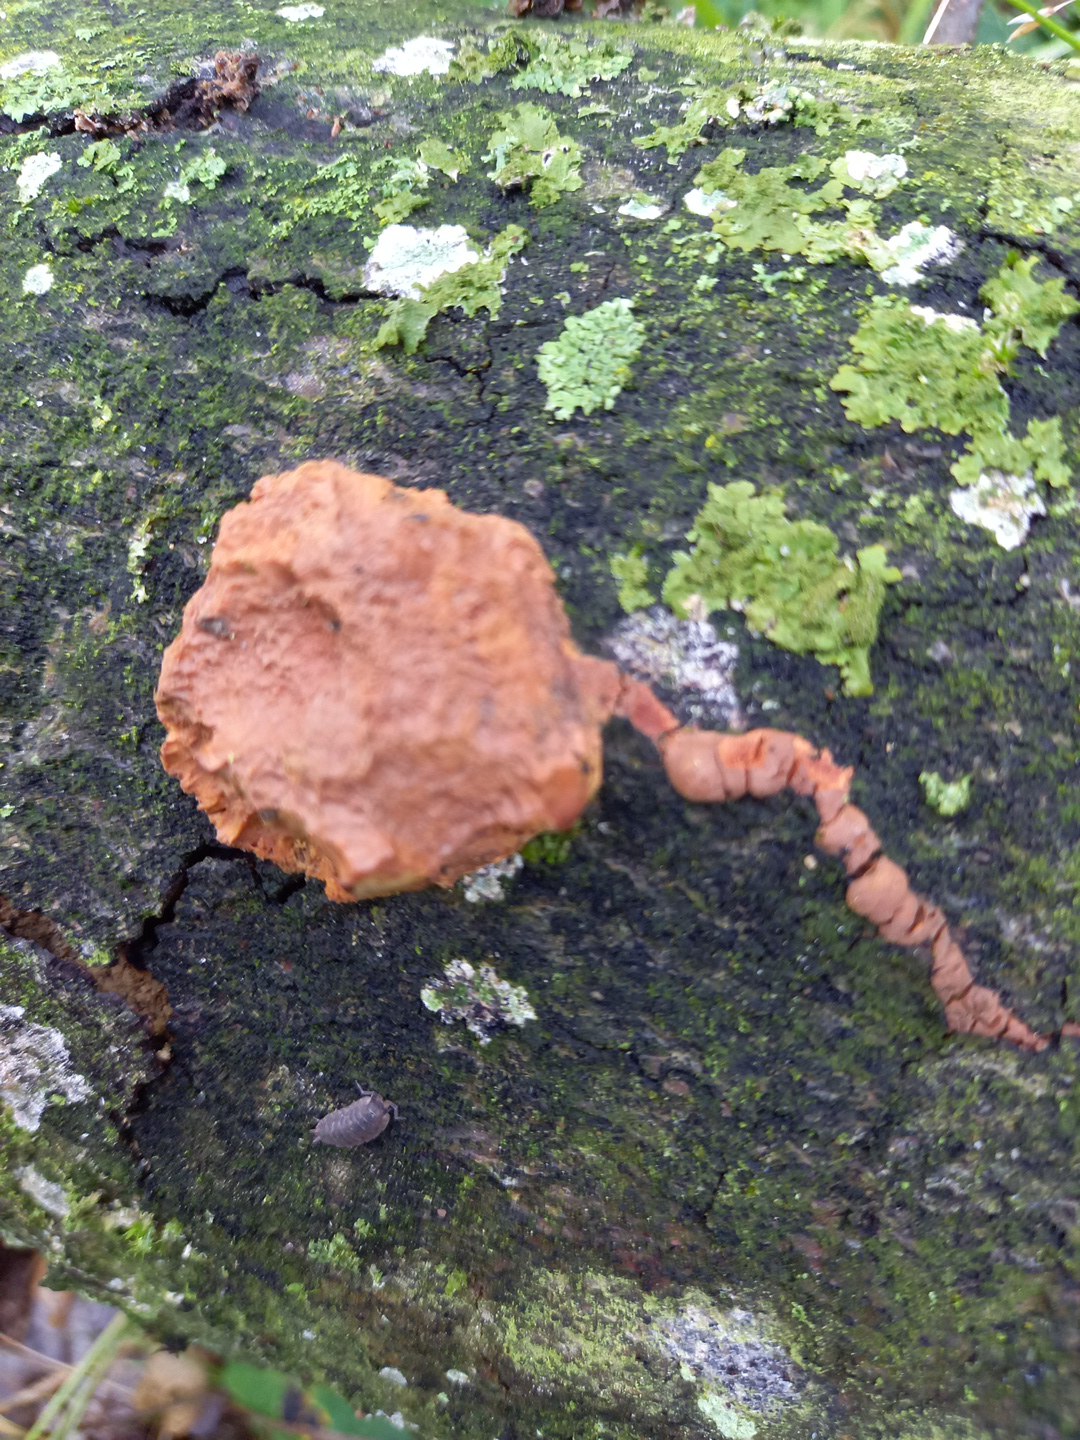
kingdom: Fungi
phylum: Basidiomycota
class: Agaricomycetes
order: Polyporales
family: Phanerochaetaceae
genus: Hapalopilus
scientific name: Hapalopilus rutilans
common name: rødlig okkerporesvamp
